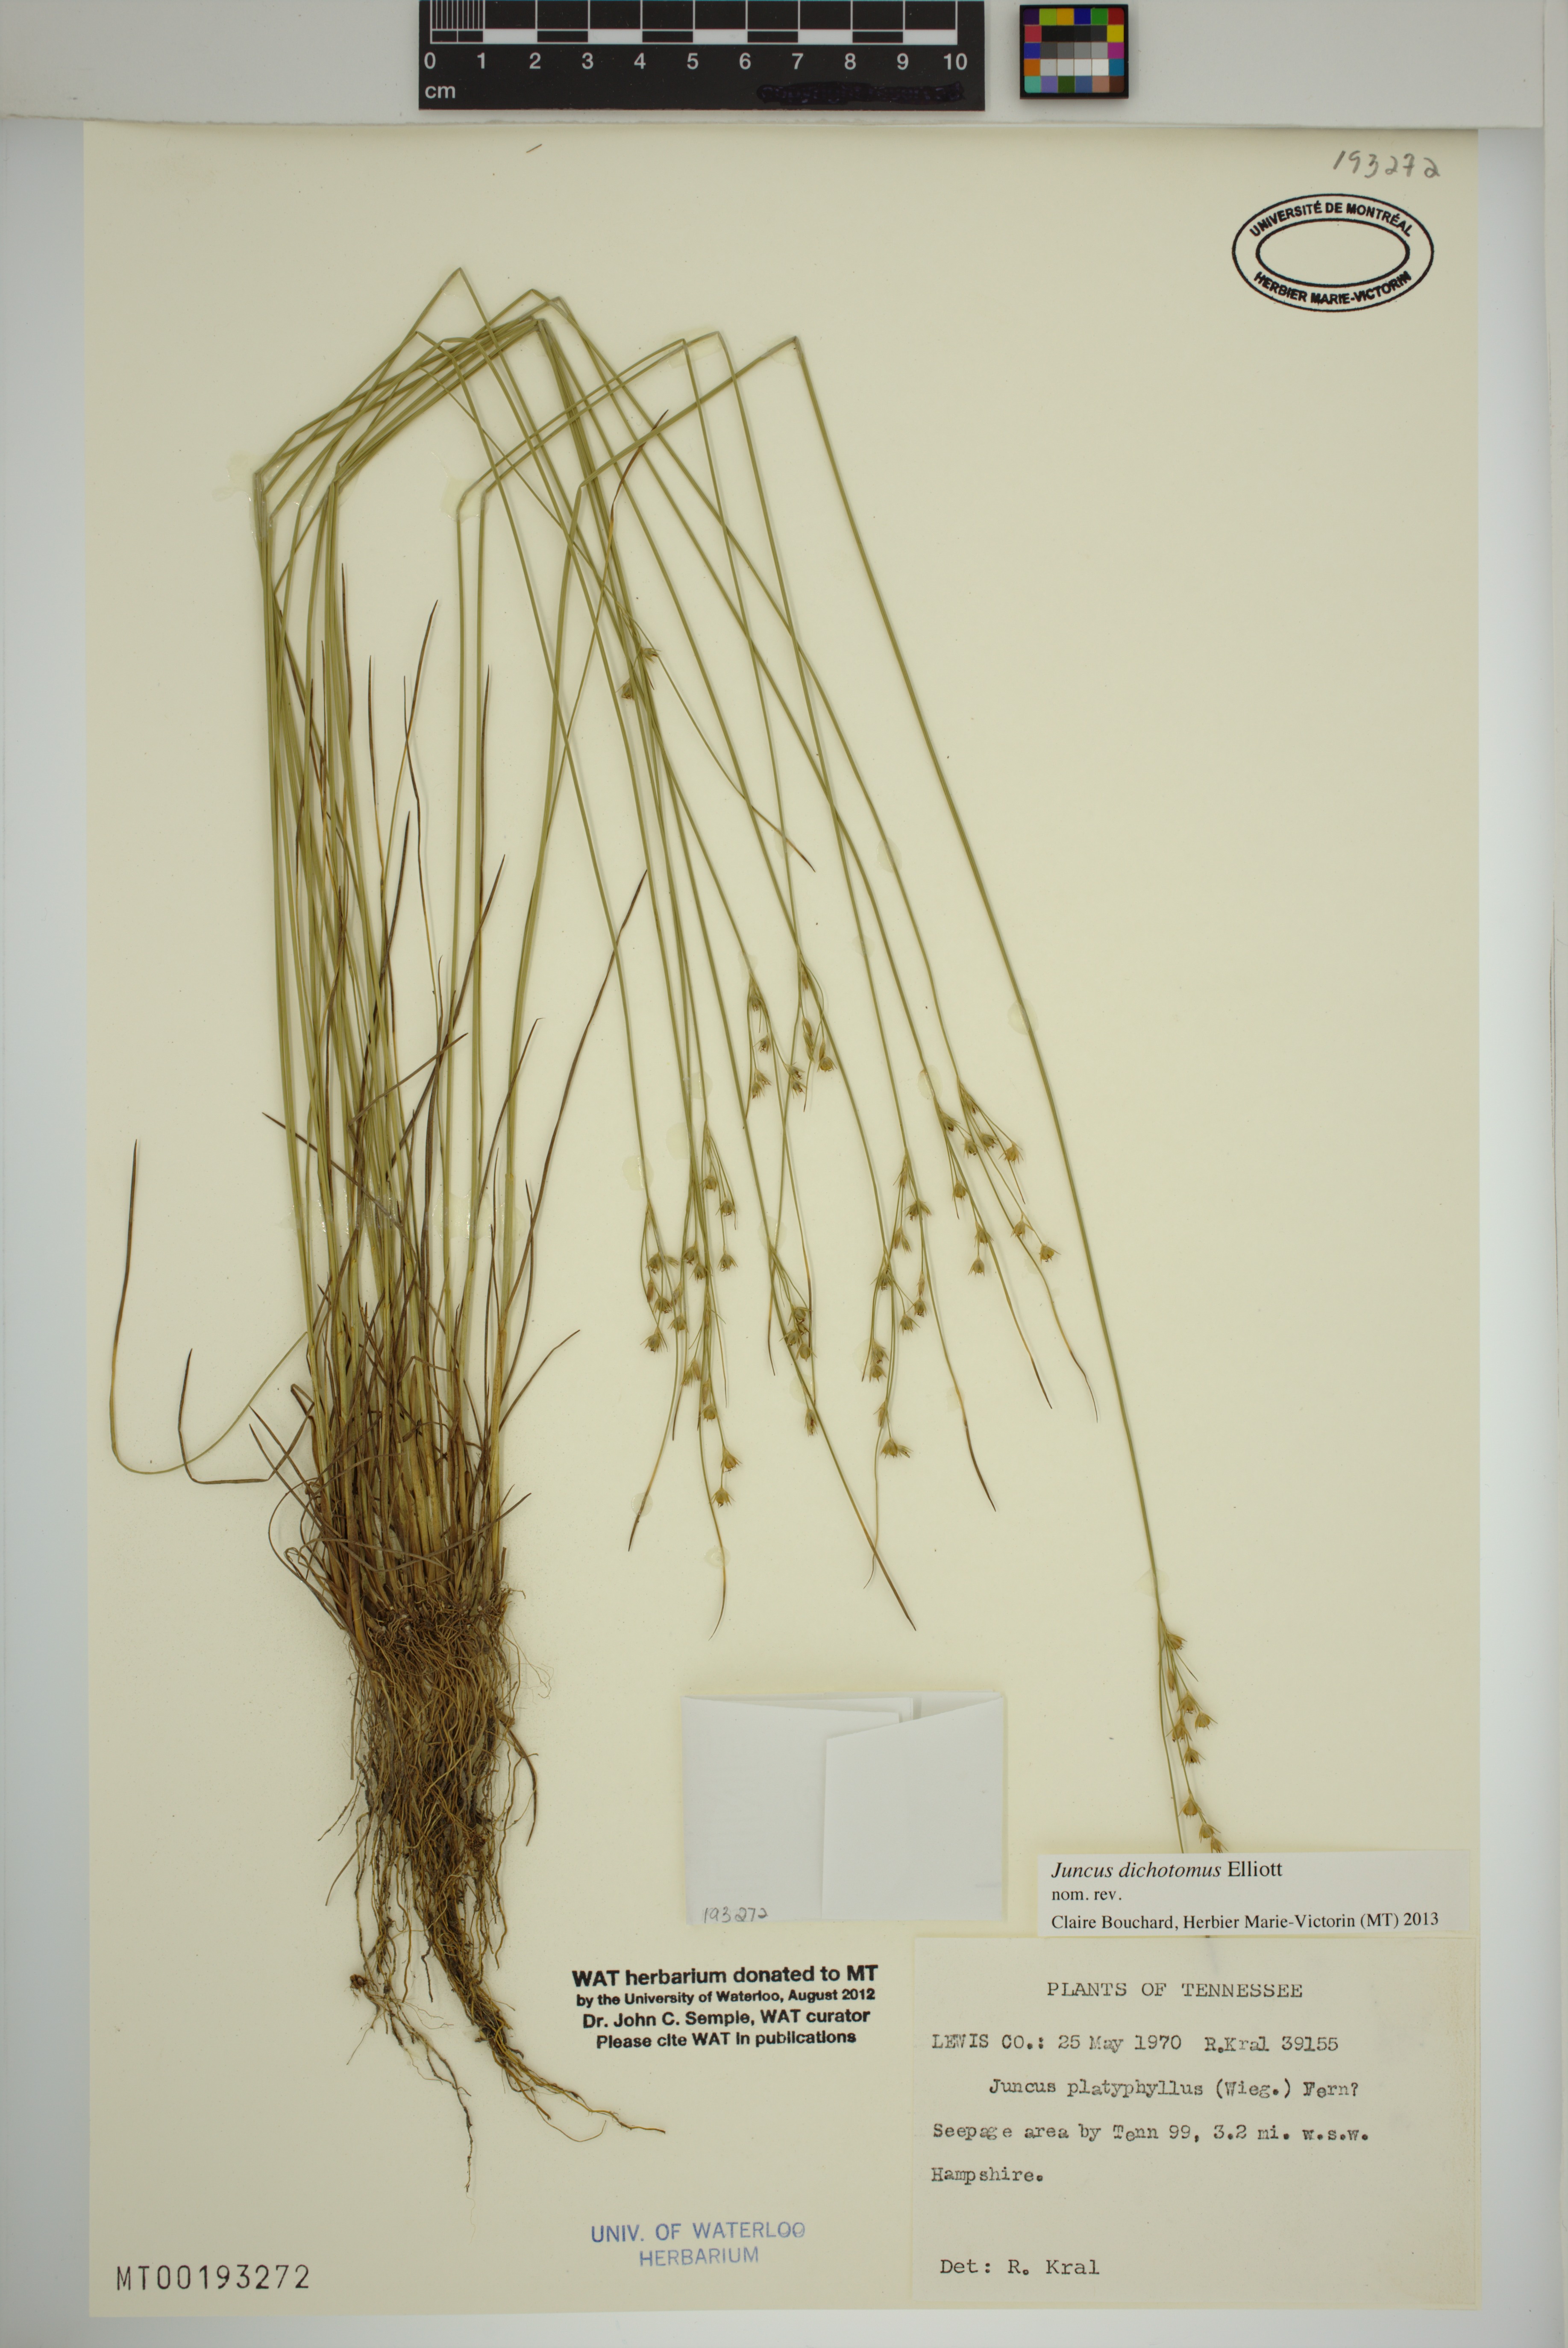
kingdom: Plantae
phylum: Tracheophyta
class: Liliopsida
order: Poales
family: Juncaceae
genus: Juncus
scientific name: Juncus dichotomus
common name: Forked rush
